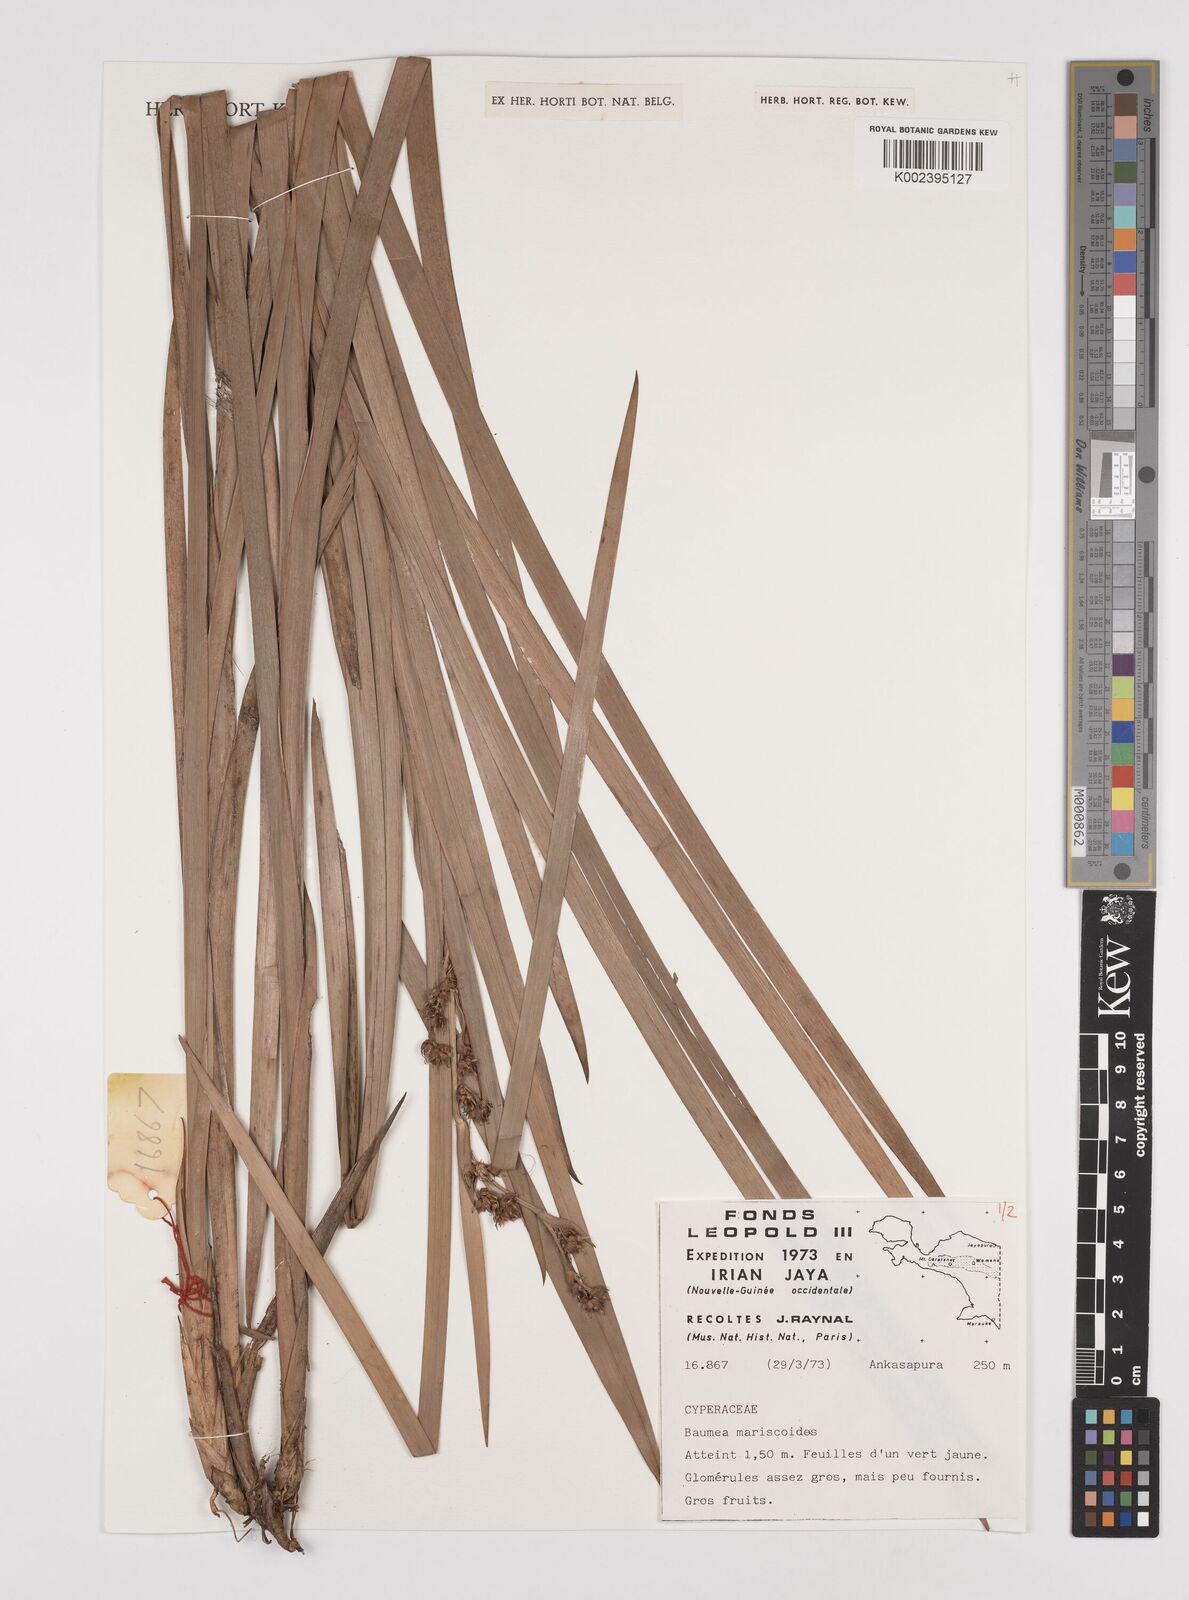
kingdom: Plantae
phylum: Tracheophyta
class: Liliopsida
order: Poales
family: Cyperaceae
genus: Machaerina
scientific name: Machaerina mariscoides
